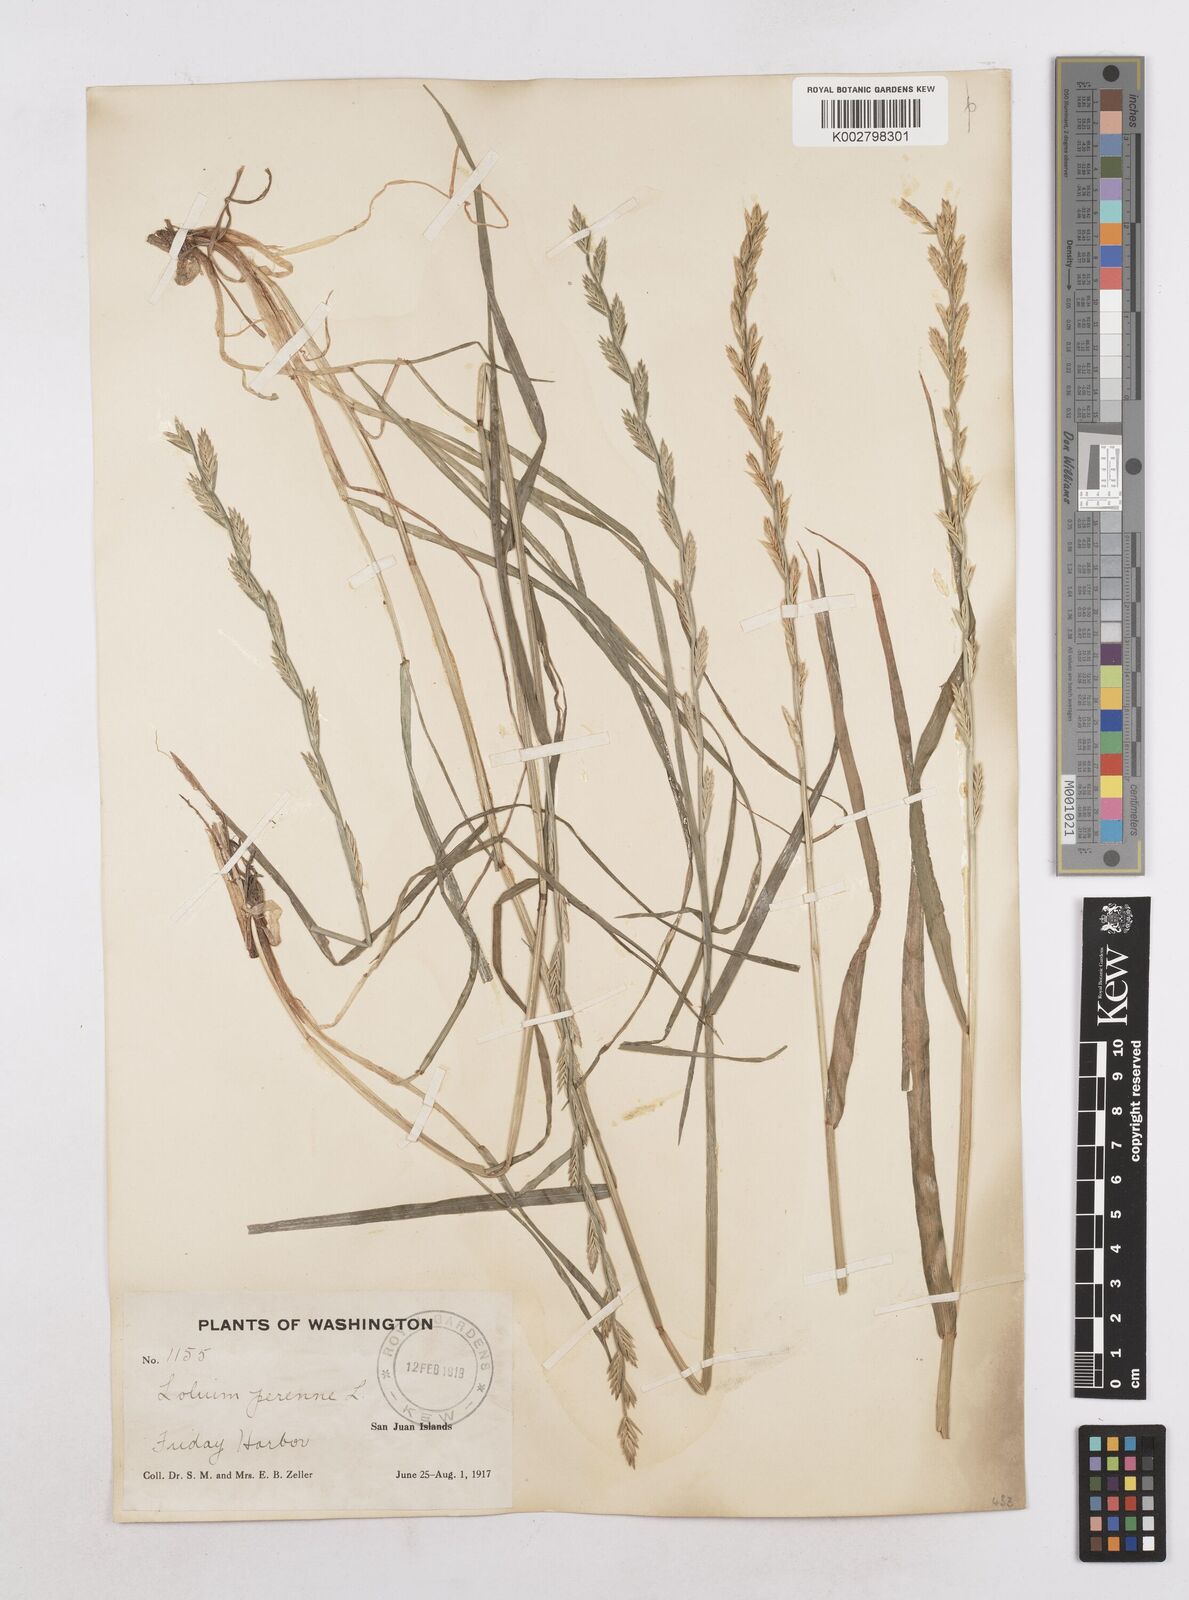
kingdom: Plantae
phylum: Tracheophyta
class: Liliopsida
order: Poales
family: Poaceae
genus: Lolium
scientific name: Lolium perenne
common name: Perennial ryegrass
